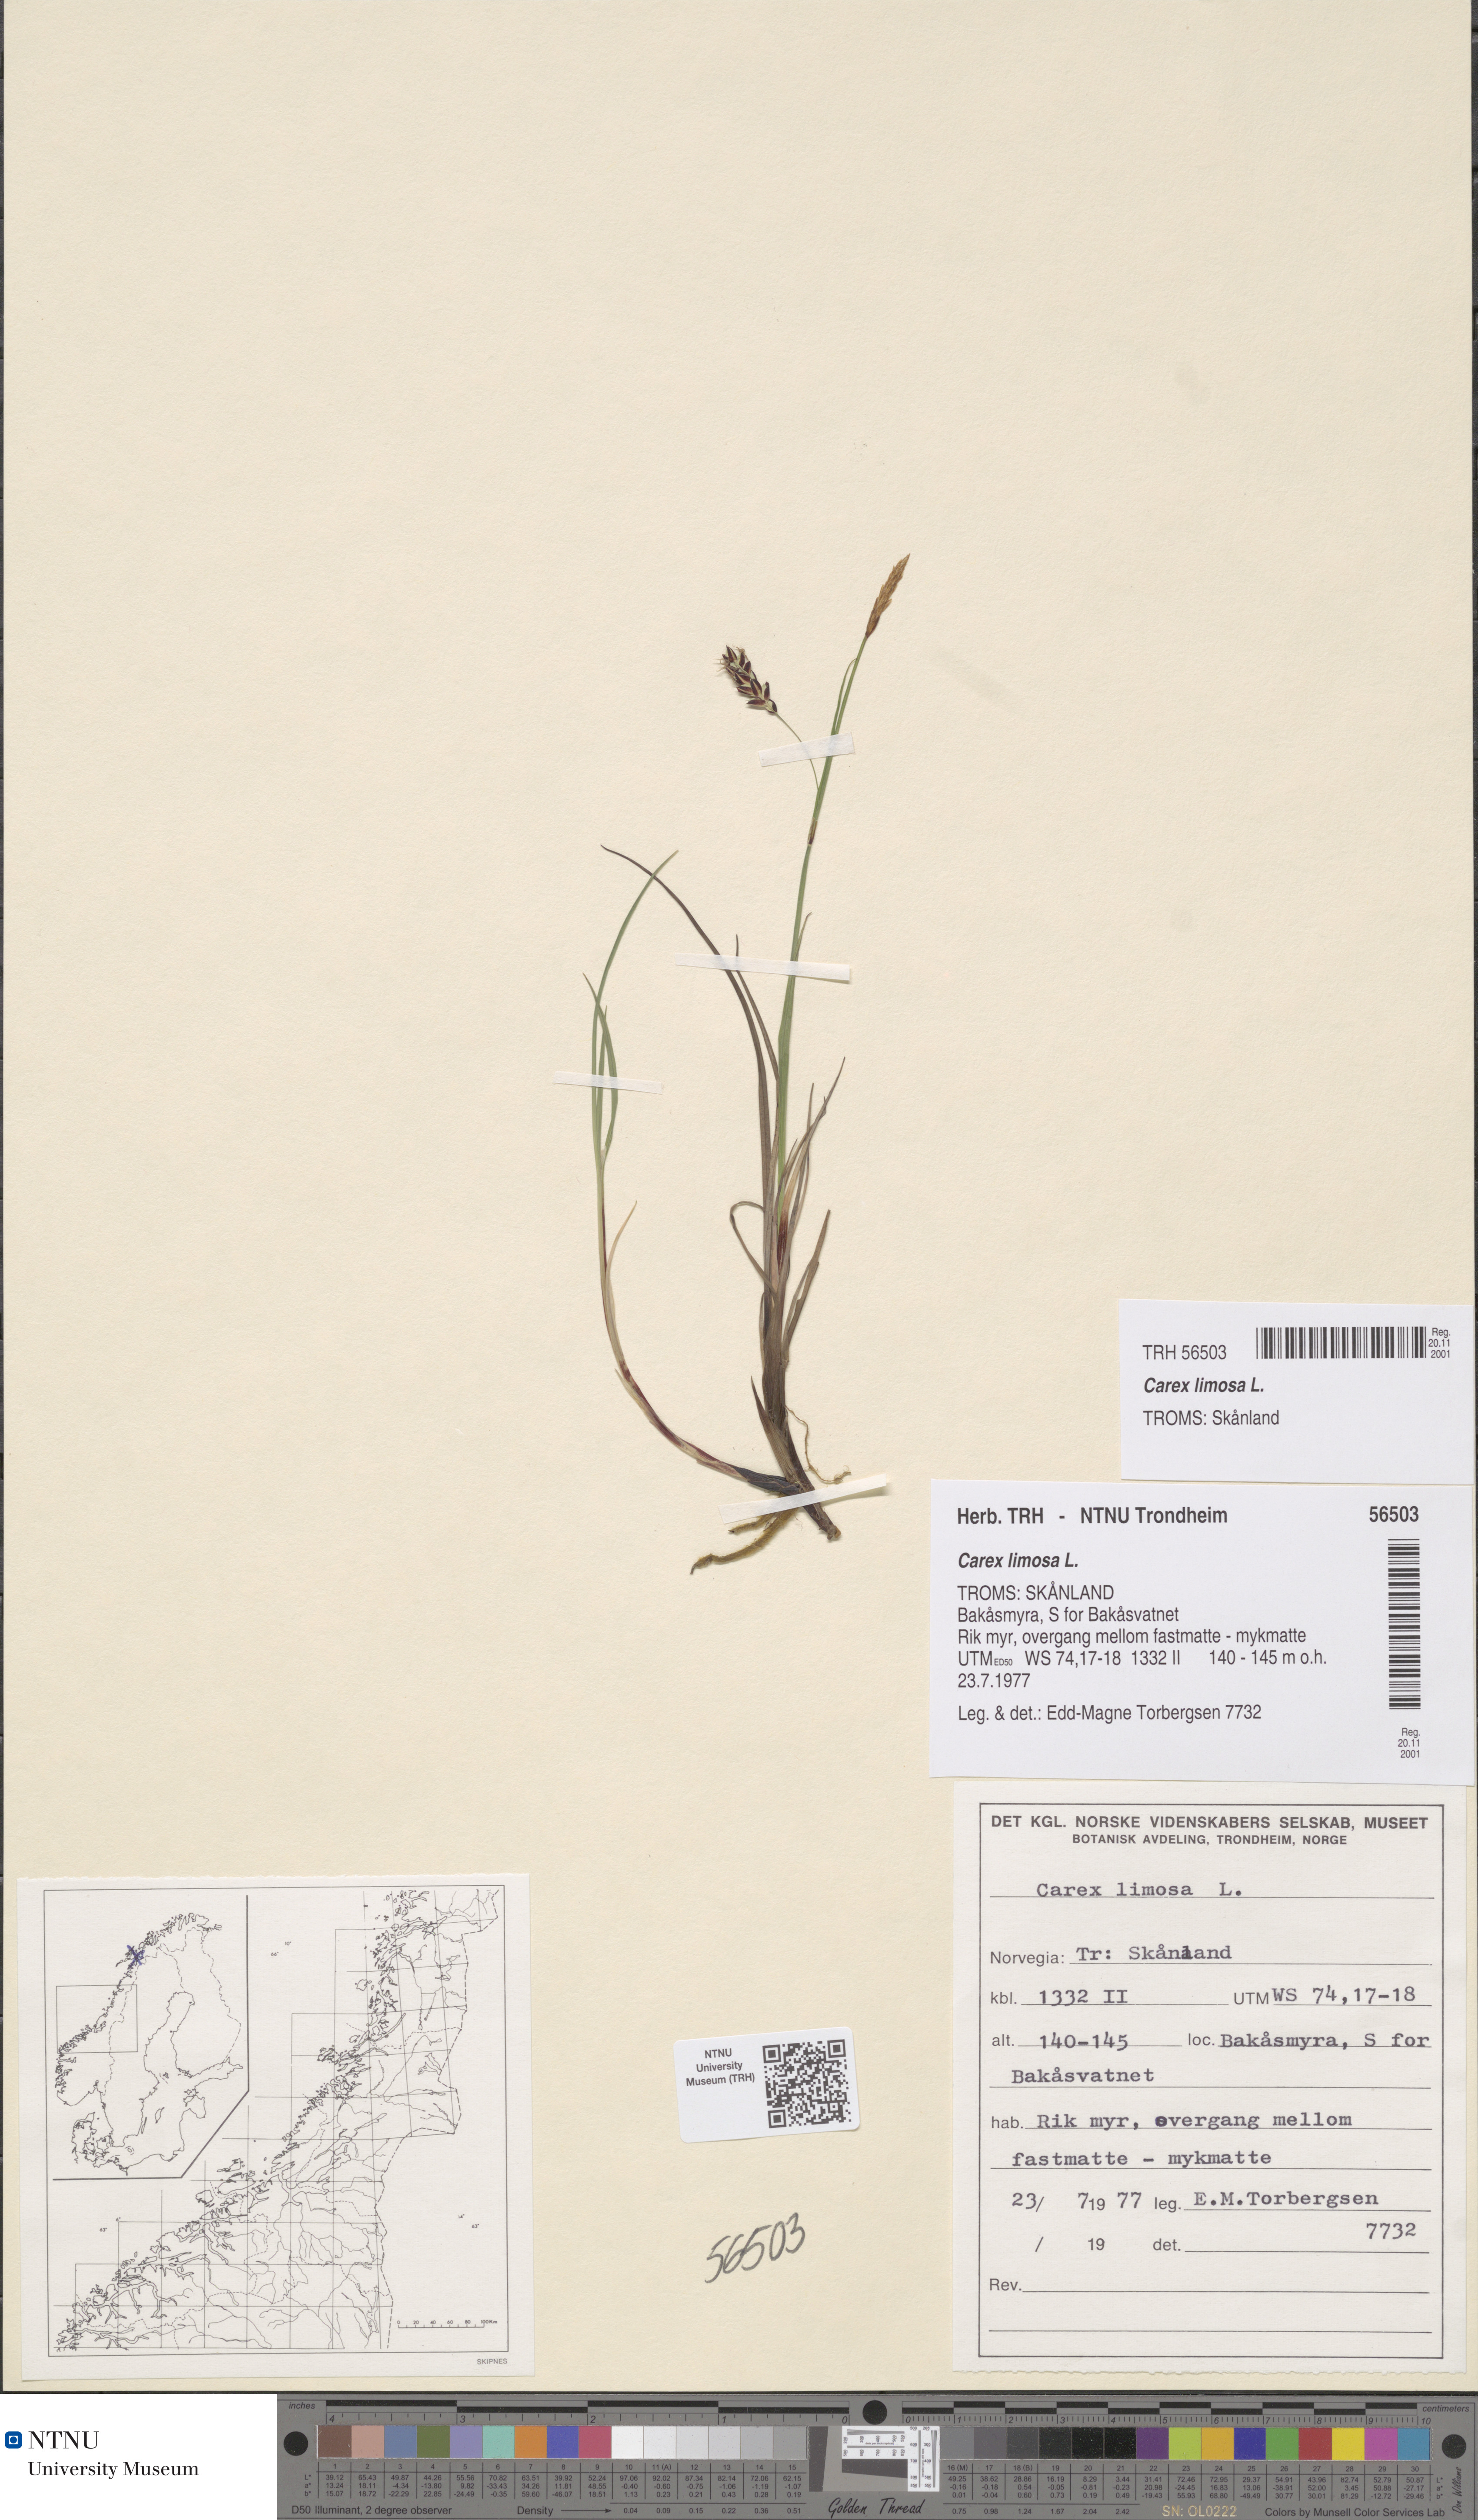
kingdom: Plantae
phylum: Tracheophyta
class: Liliopsida
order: Poales
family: Cyperaceae
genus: Carex
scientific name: Carex limosa
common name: Bog sedge
